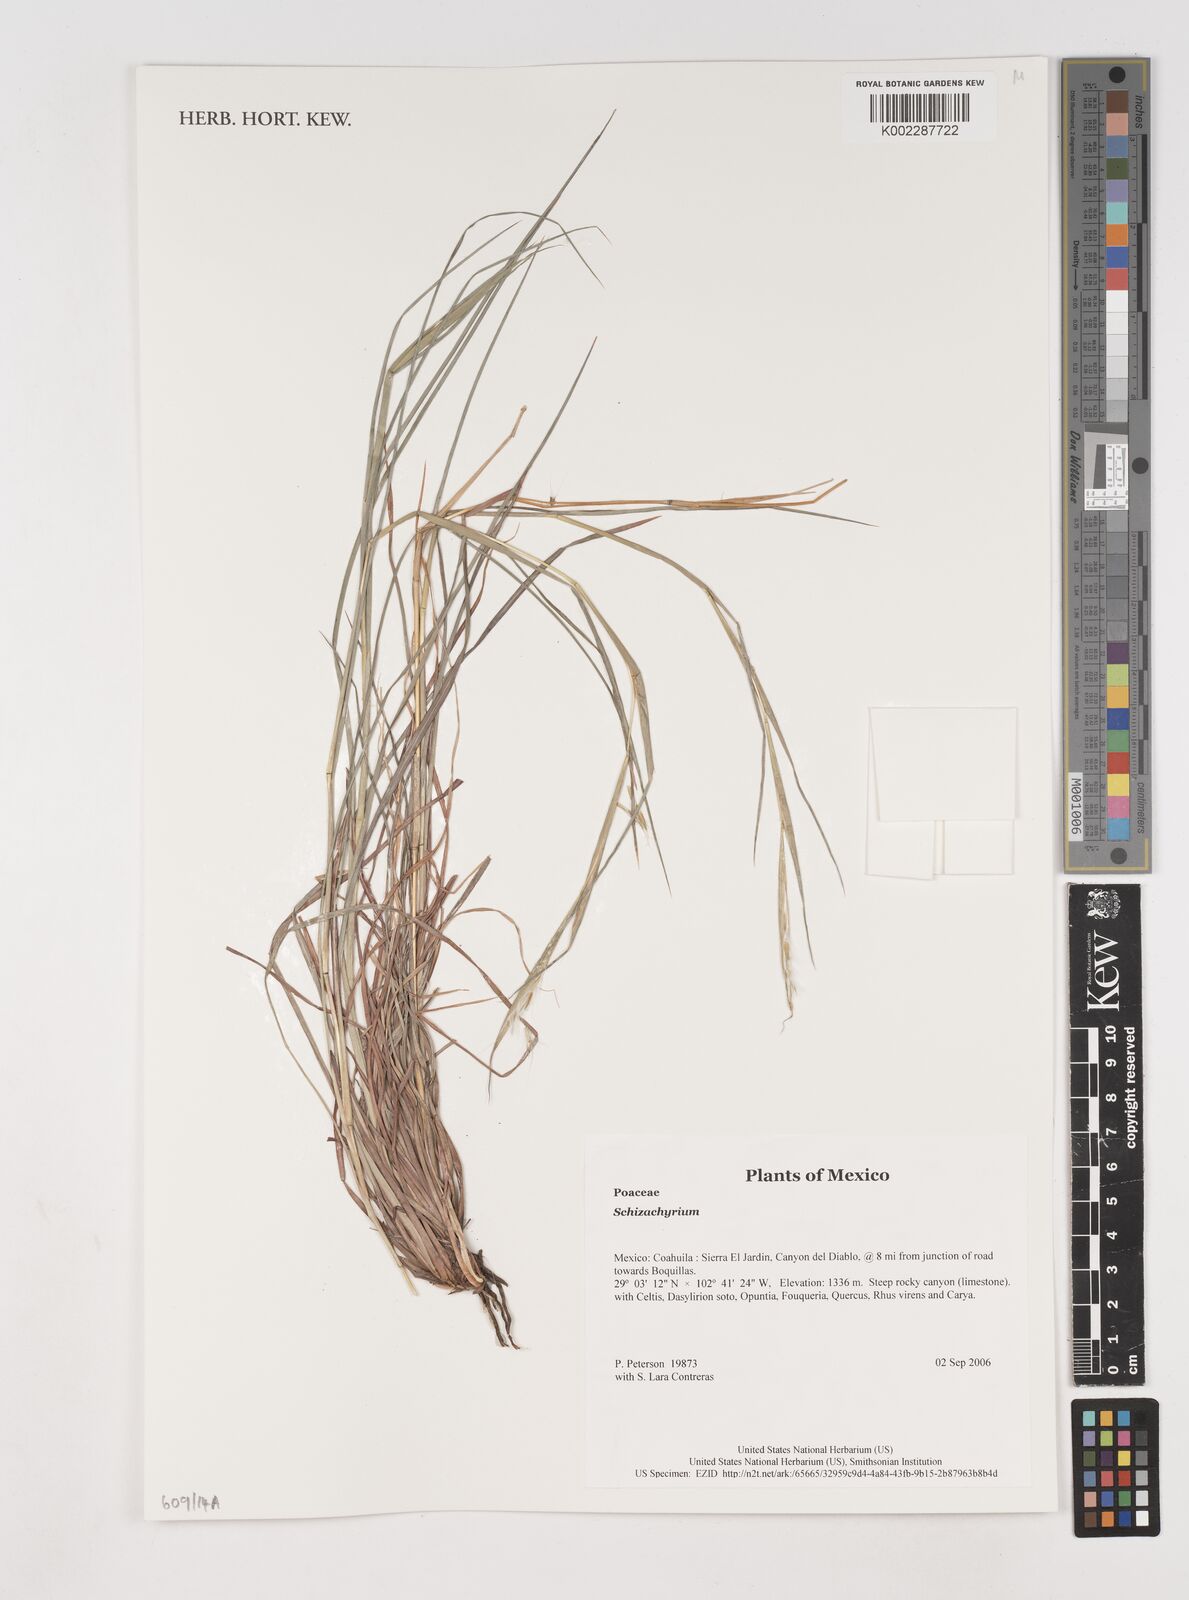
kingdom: Plantae
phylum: Tracheophyta
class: Liliopsida
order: Poales
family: Poaceae
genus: Schizachyrium
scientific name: Schizachyrium
